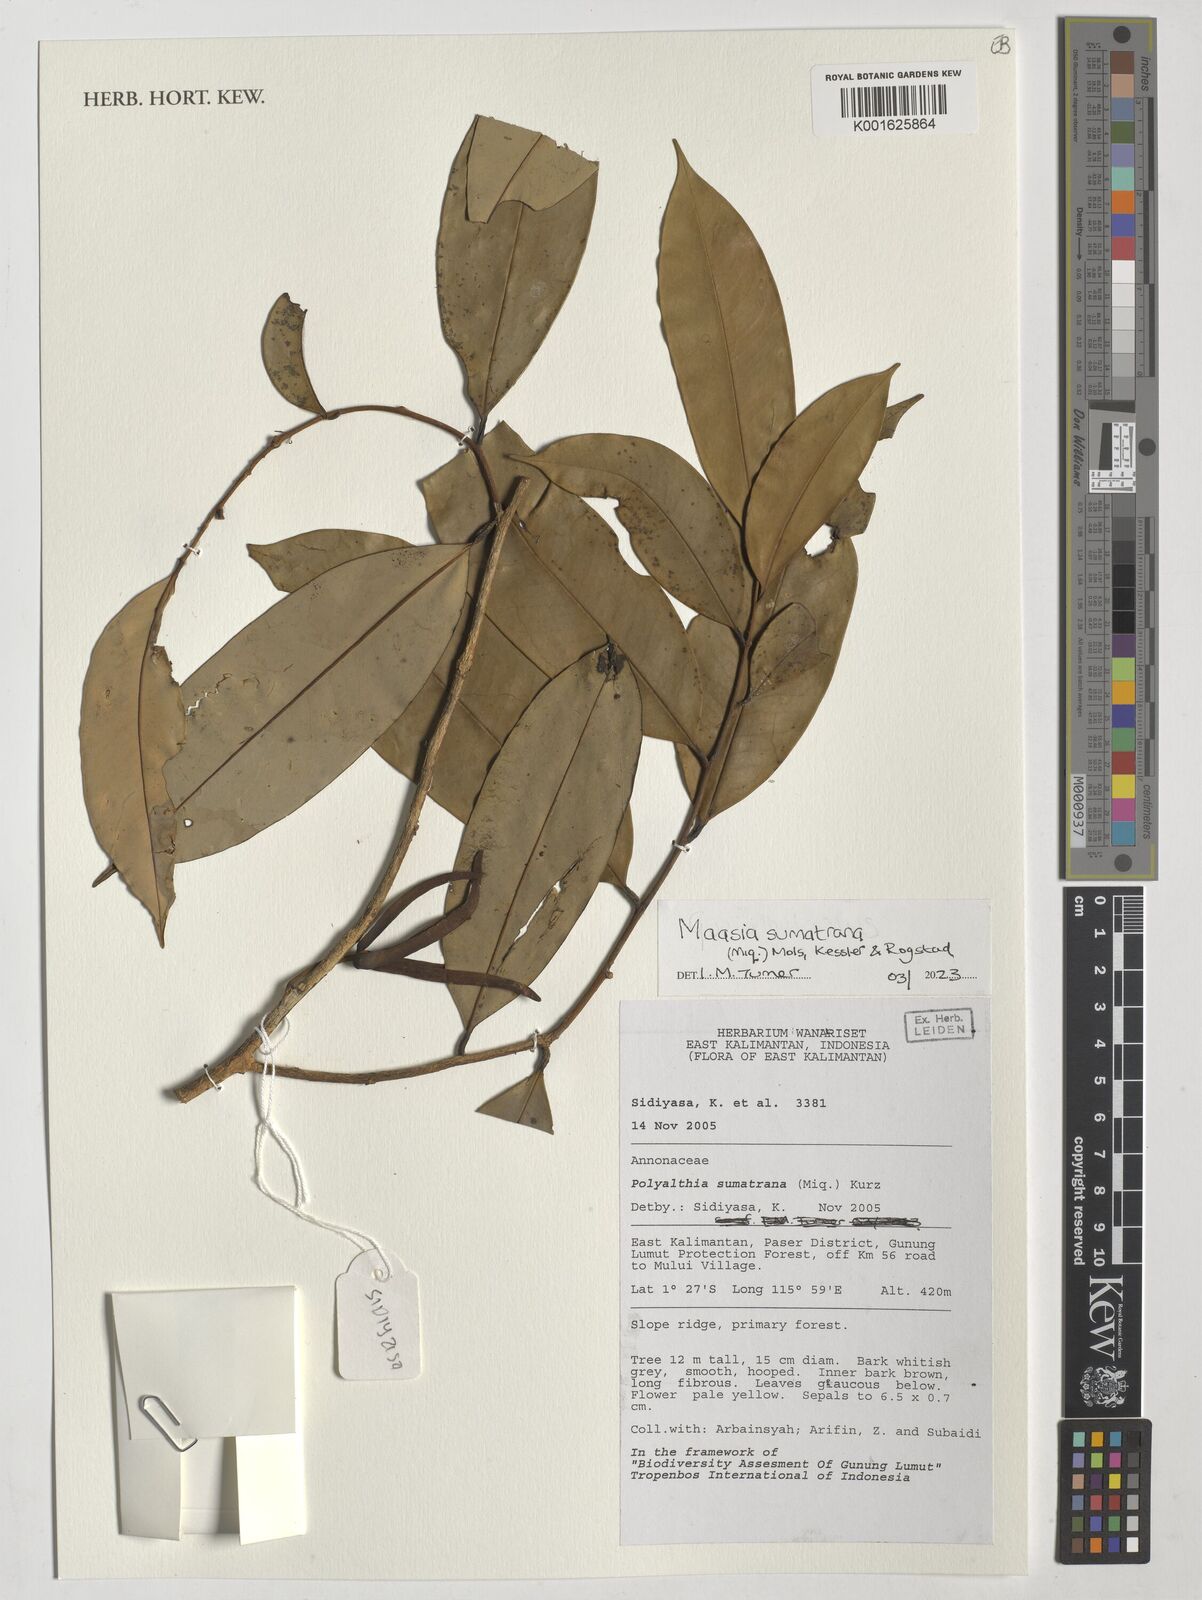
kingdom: Plantae
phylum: Tracheophyta
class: Magnoliopsida
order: Magnoliales
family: Annonaceae
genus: Maasia
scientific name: Maasia sumatrana
